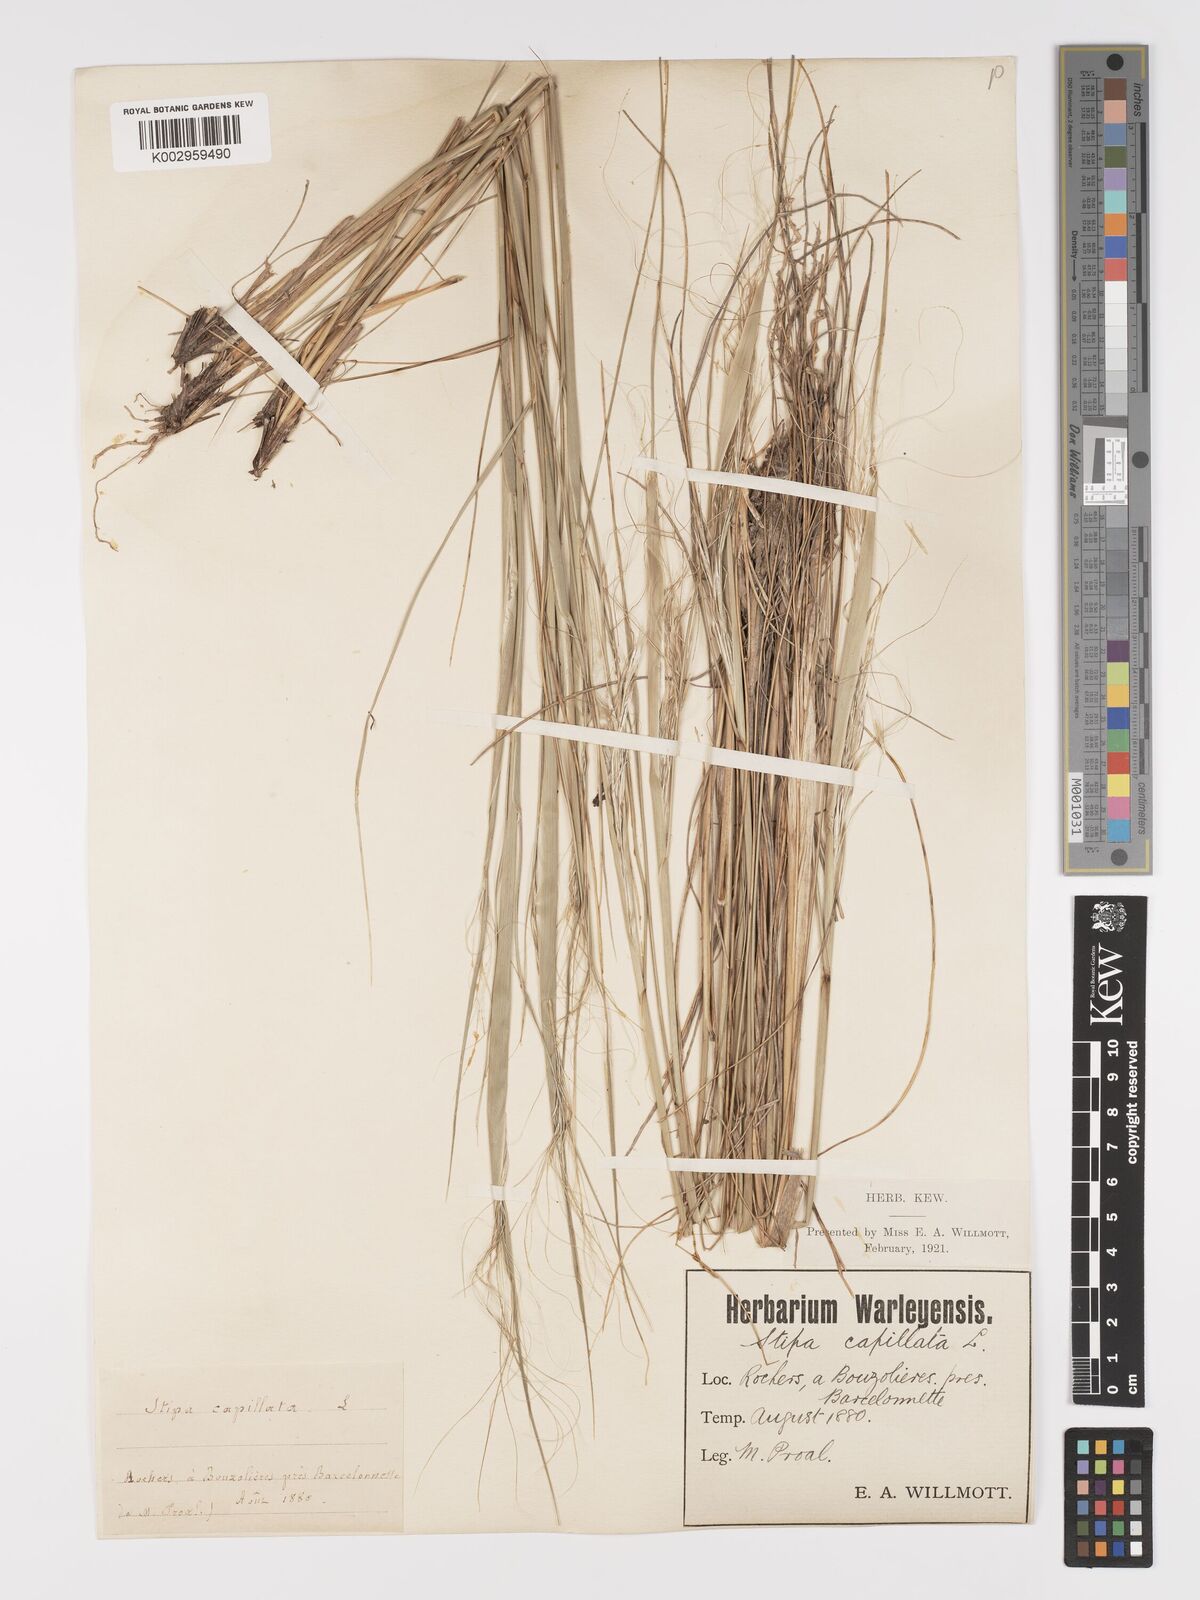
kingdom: Plantae
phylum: Tracheophyta
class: Liliopsida
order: Poales
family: Poaceae
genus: Stipa
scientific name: Stipa capillata
